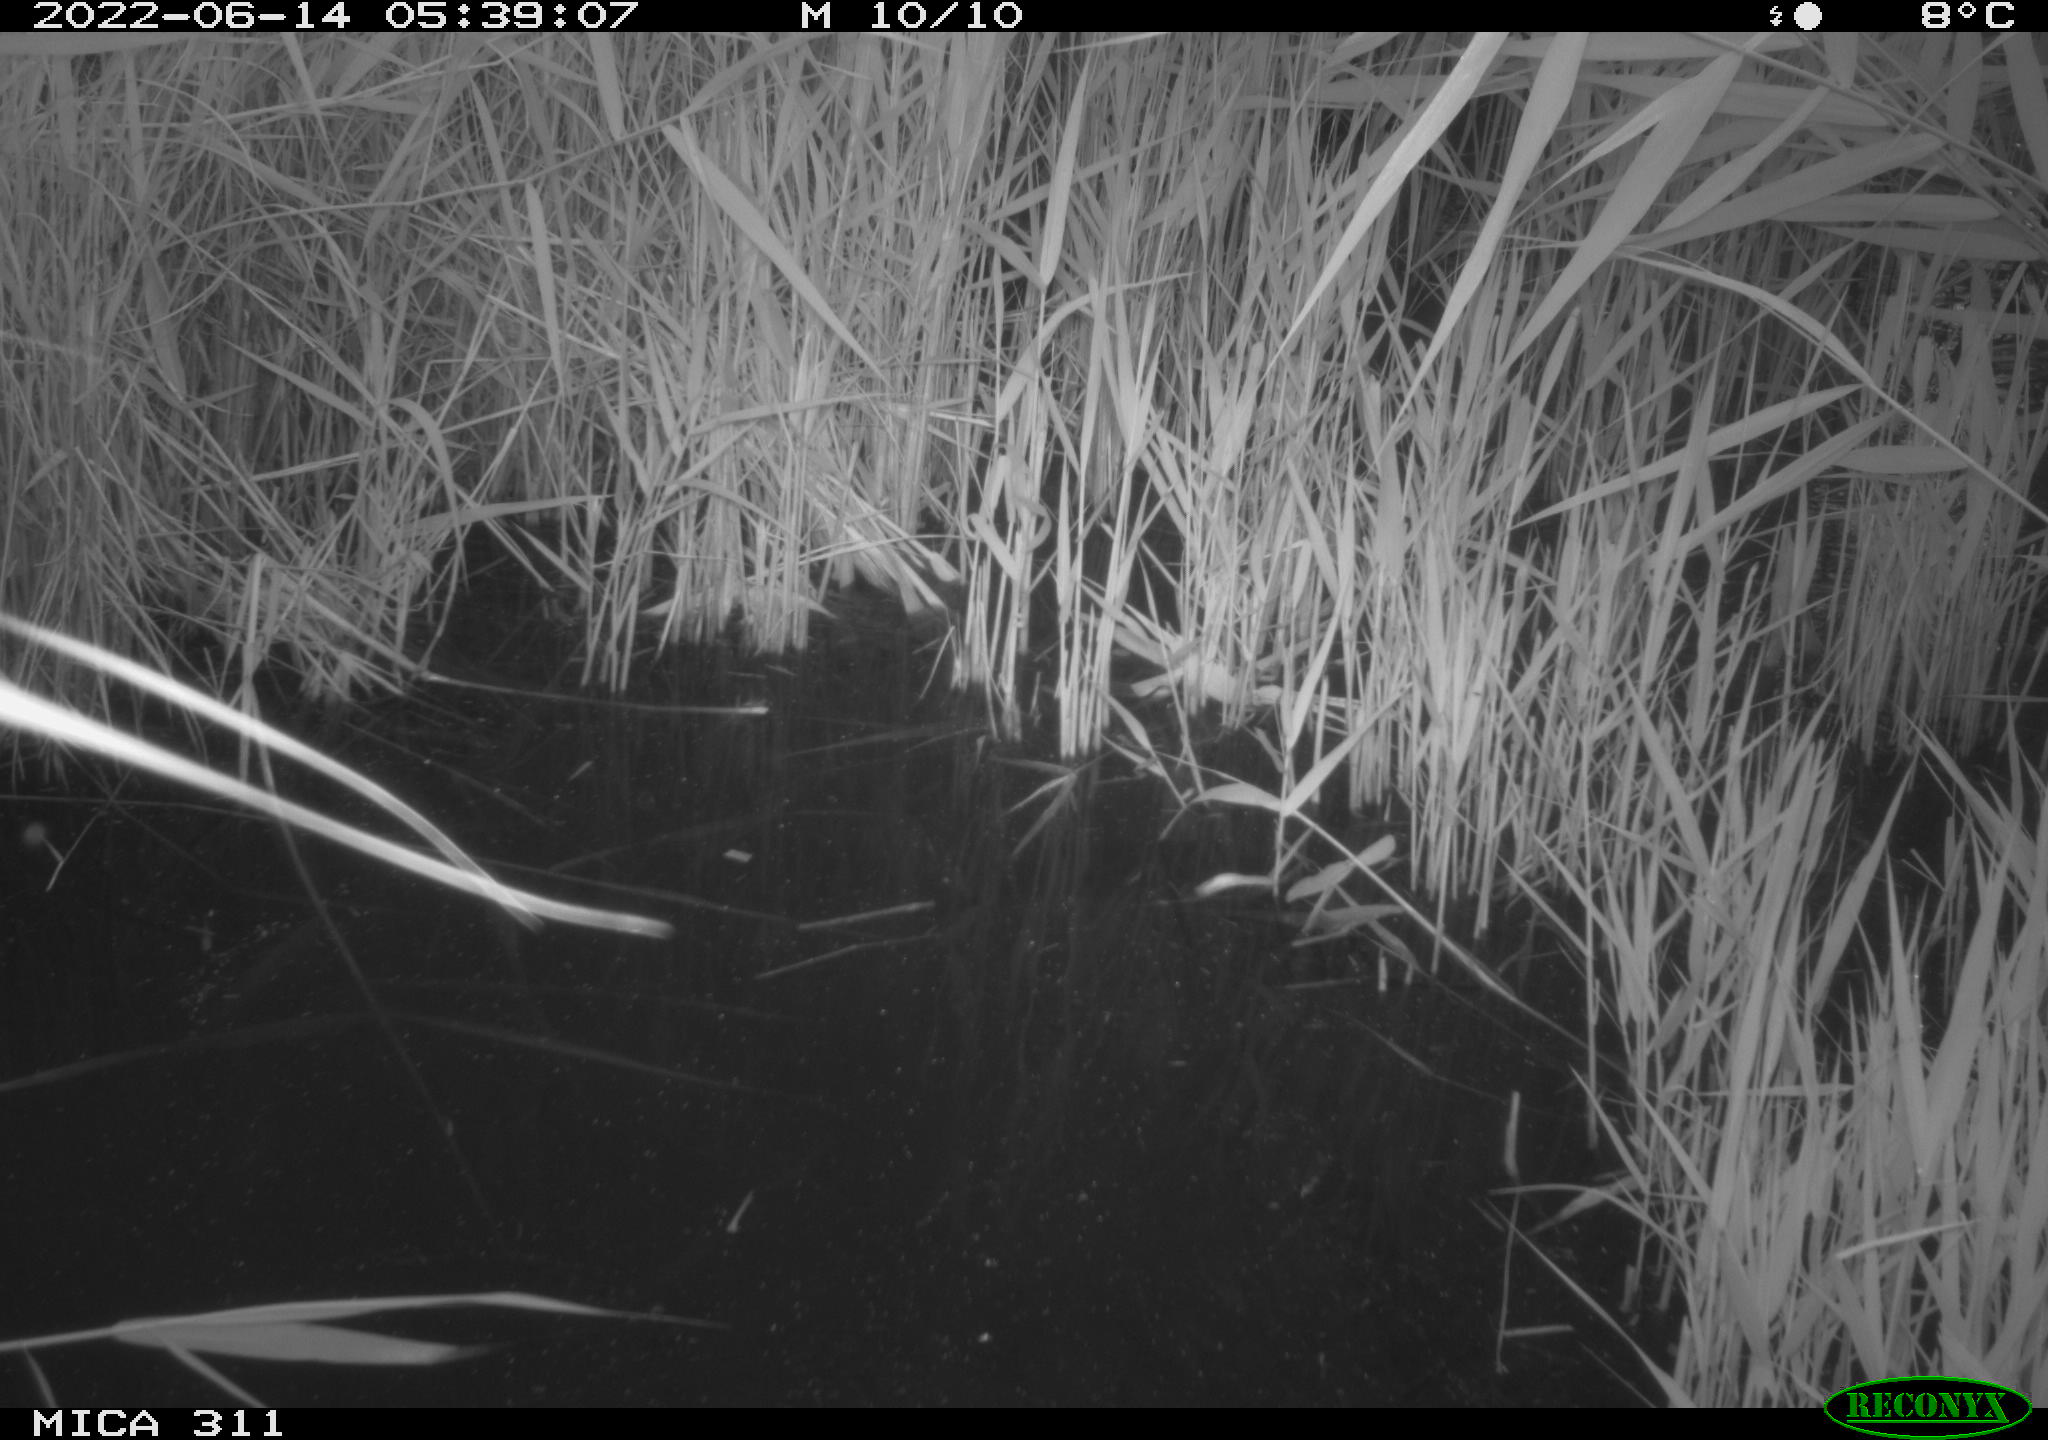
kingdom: Animalia
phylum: Chordata
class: Aves
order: Gruiformes
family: Rallidae
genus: Gallinula
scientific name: Gallinula chloropus
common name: Common moorhen
